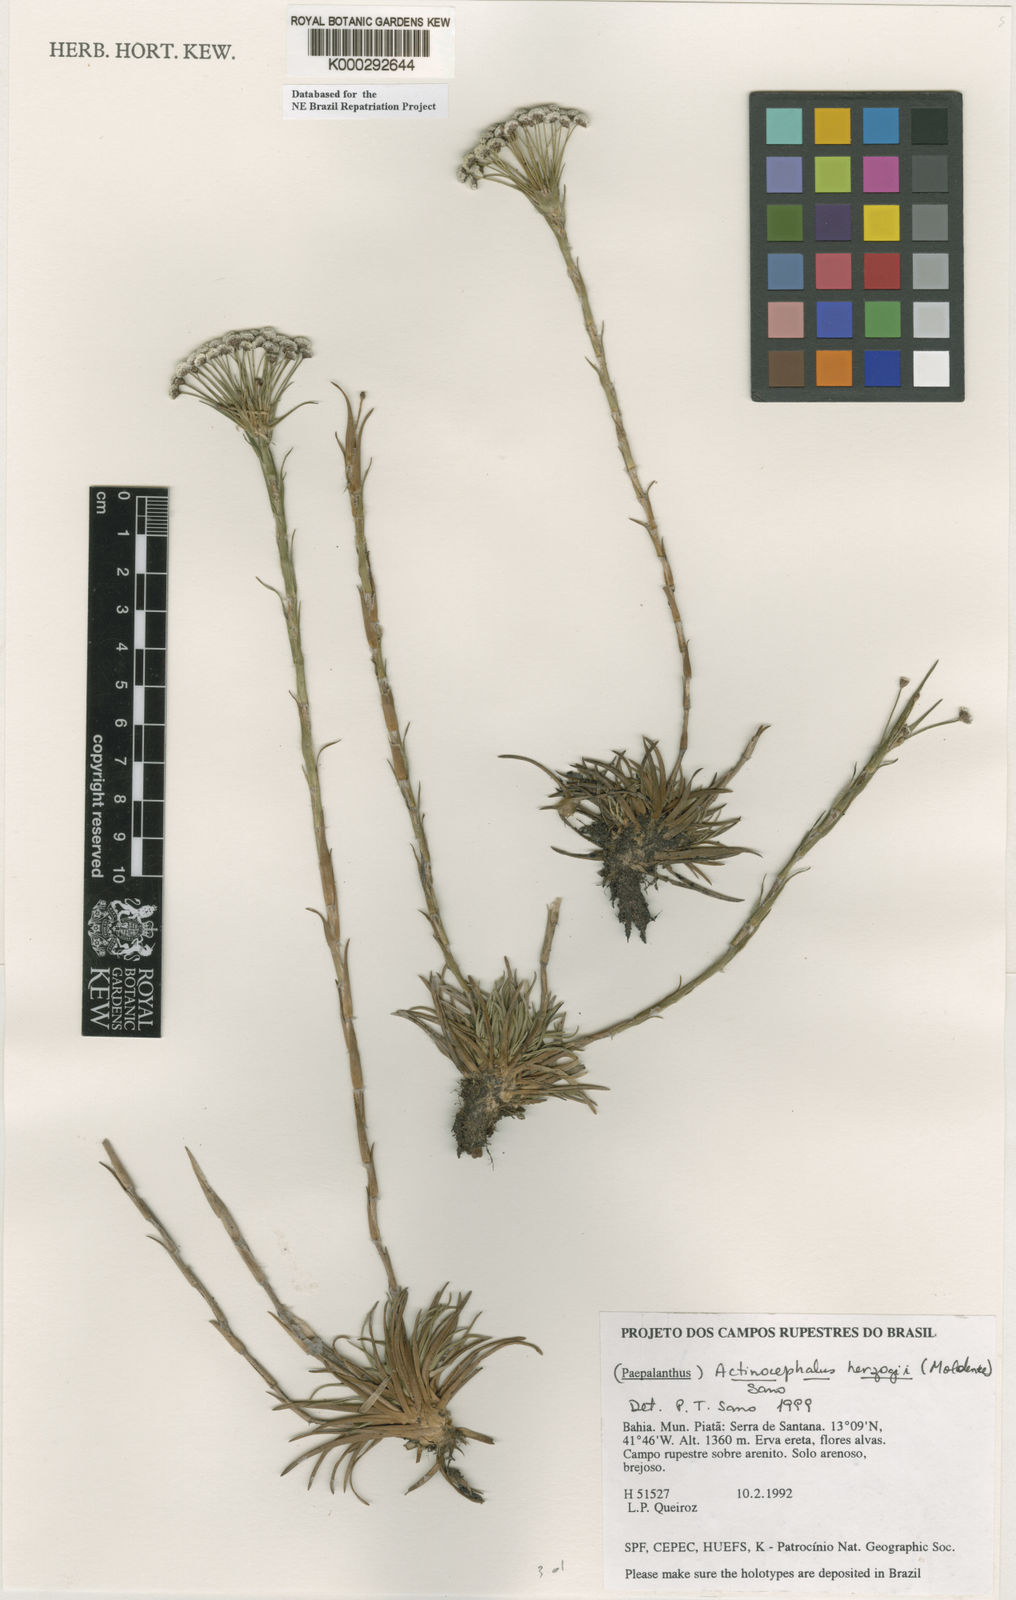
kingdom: Plantae
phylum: Tracheophyta
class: Liliopsida
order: Poales
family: Eriocaulaceae
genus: Paepalanthus
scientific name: Paepalanthus herzogii
